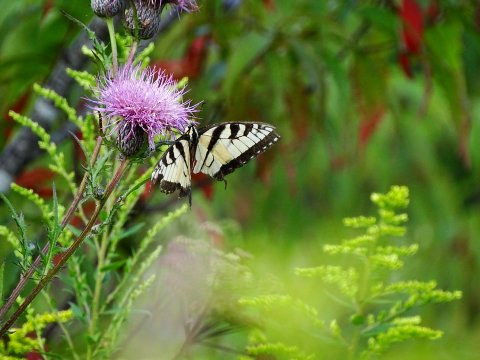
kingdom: Animalia
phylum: Arthropoda
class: Insecta
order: Lepidoptera
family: Papilionidae
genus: Pterourus
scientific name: Pterourus glaucus
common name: Eastern Tiger Swallowtail
